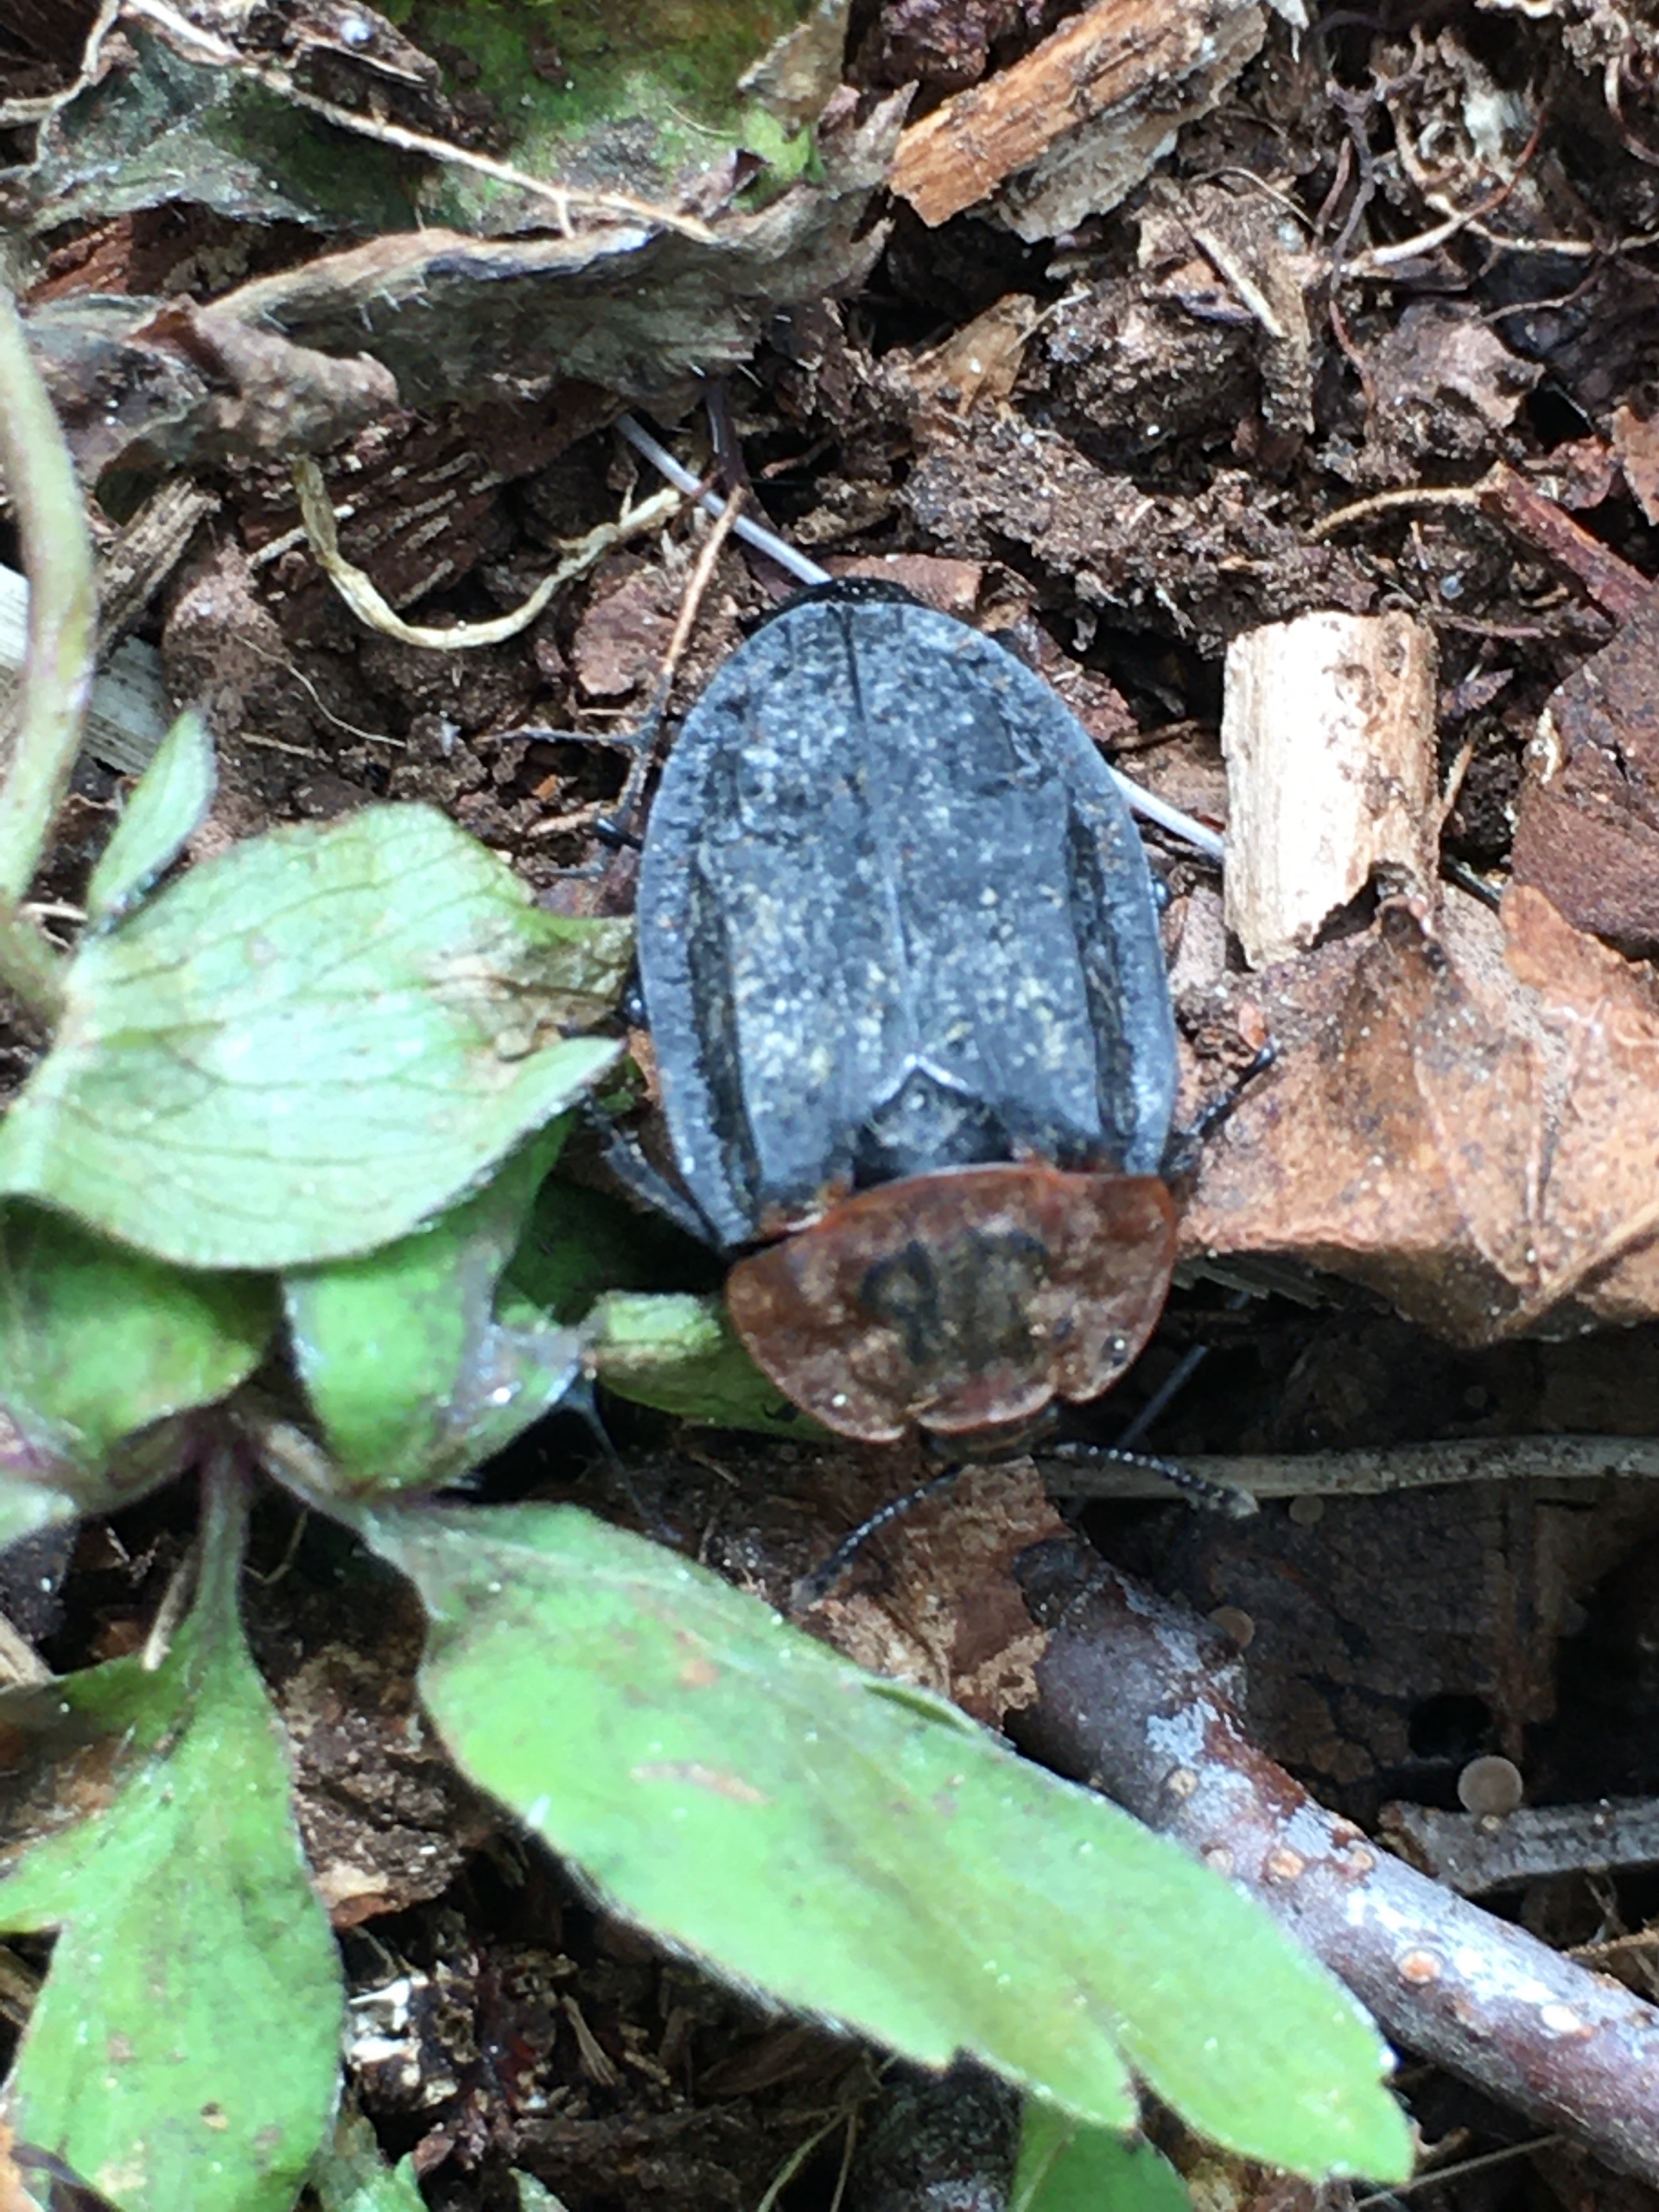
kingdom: Animalia
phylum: Arthropoda
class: Insecta
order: Coleoptera
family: Staphylinidae
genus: Oiceoptoma
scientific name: Oiceoptoma thoracicum
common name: Rødbrystet ådselbille
